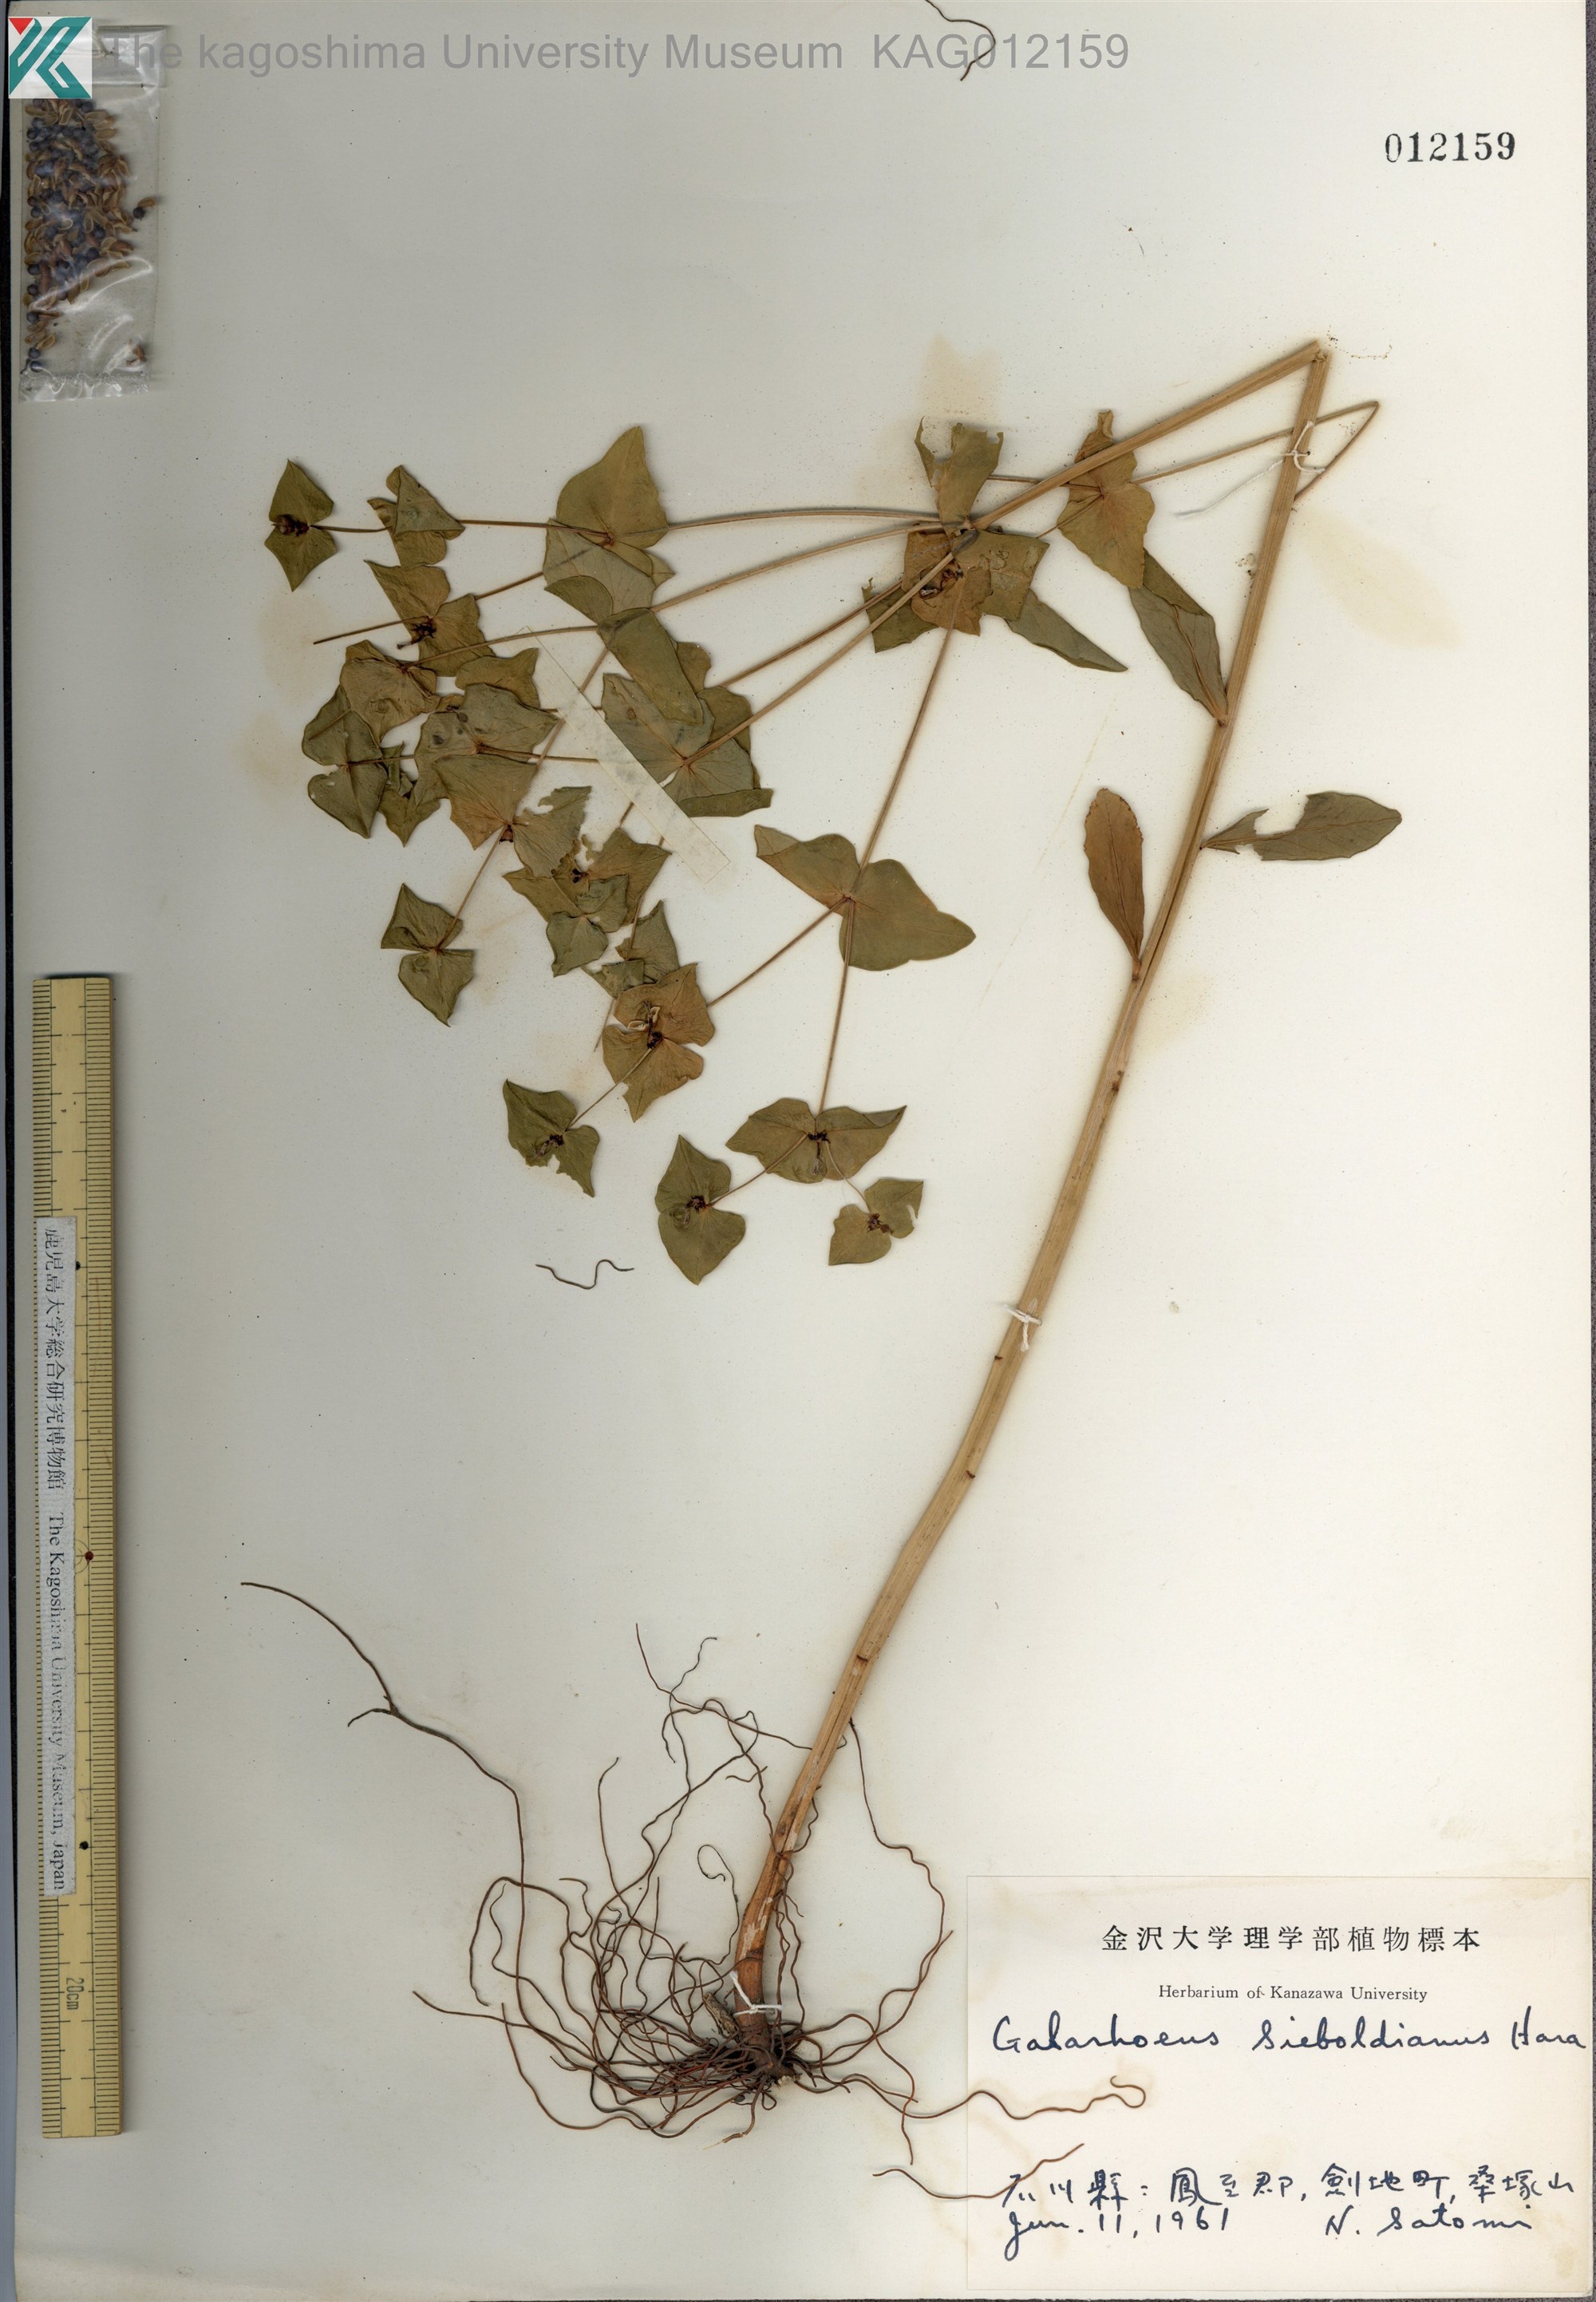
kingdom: Plantae
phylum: Tracheophyta
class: Magnoliopsida
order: Malpighiales
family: Euphorbiaceae
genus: Euphorbia
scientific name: Euphorbia sieboldiana
